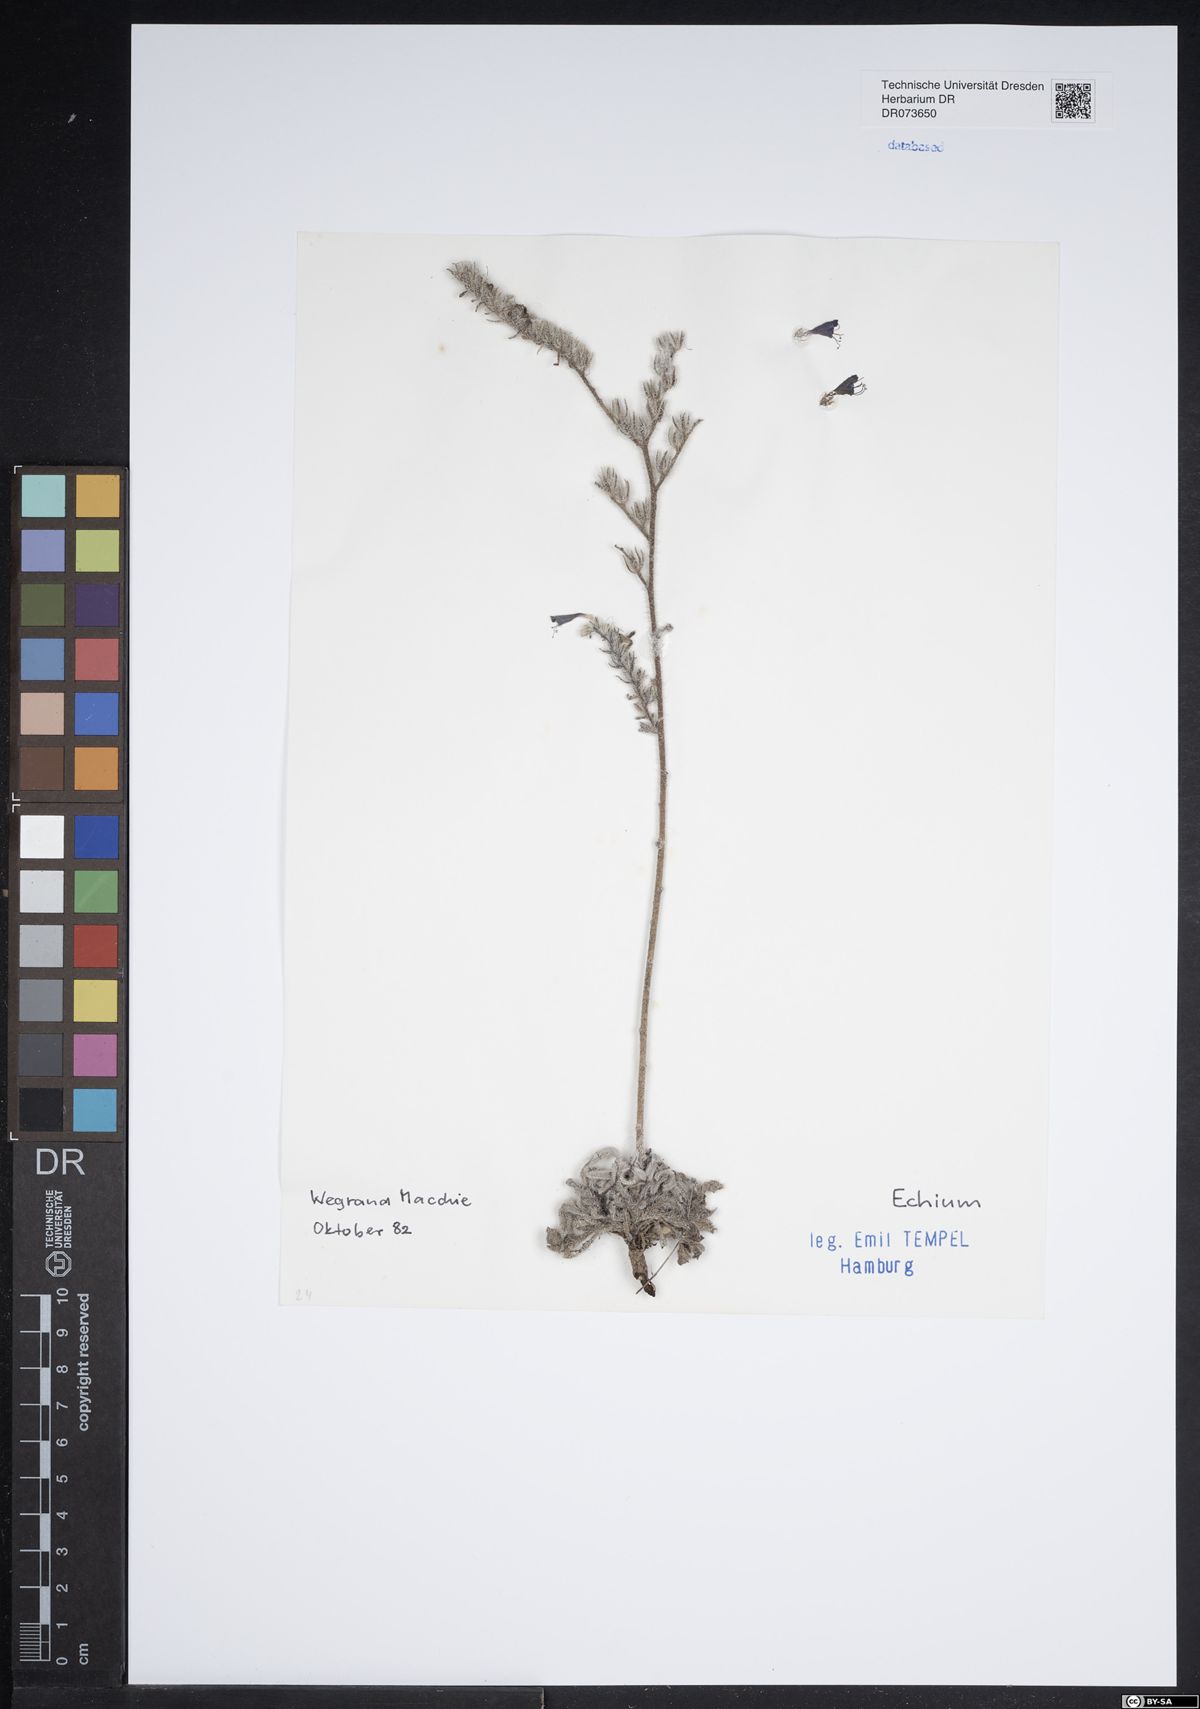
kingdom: Plantae
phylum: Tracheophyta
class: Magnoliopsida
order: Boraginales
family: Boraginaceae
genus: Echium
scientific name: Echium
